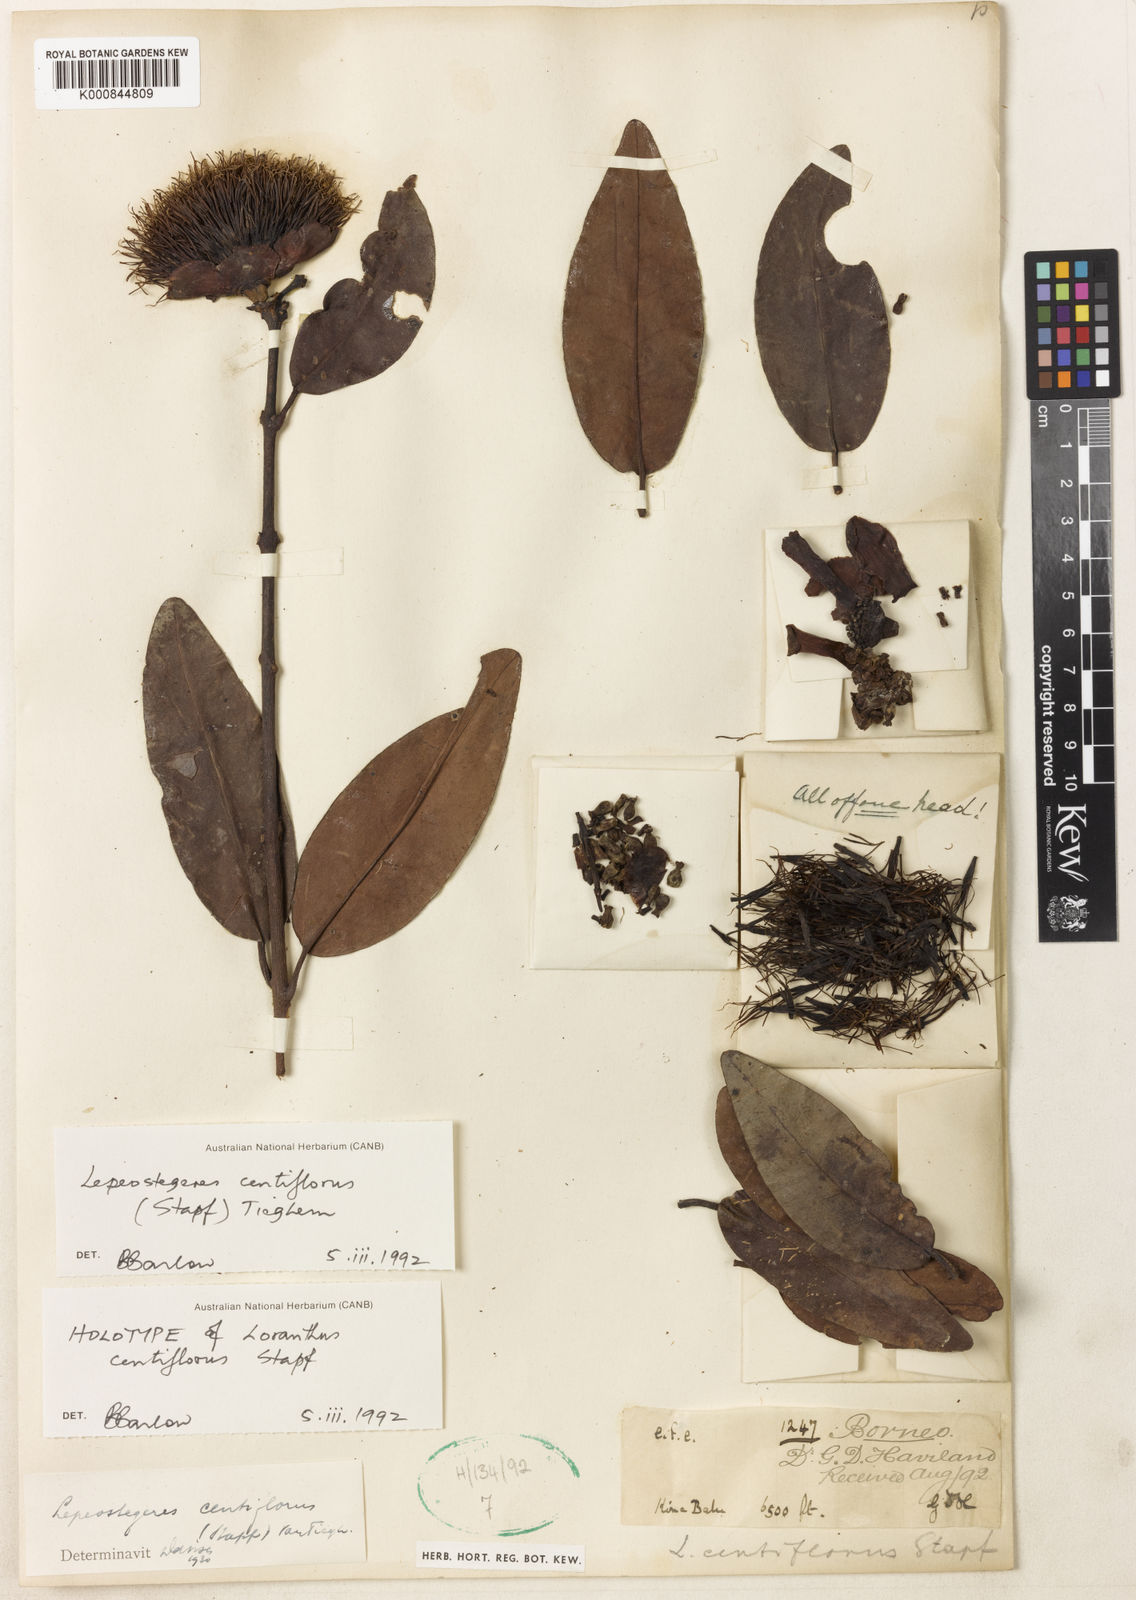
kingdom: Plantae
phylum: Tracheophyta
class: Magnoliopsida
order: Santalales
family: Loranthaceae
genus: Lepeostegeres
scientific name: Lepeostegeres centiflorus
